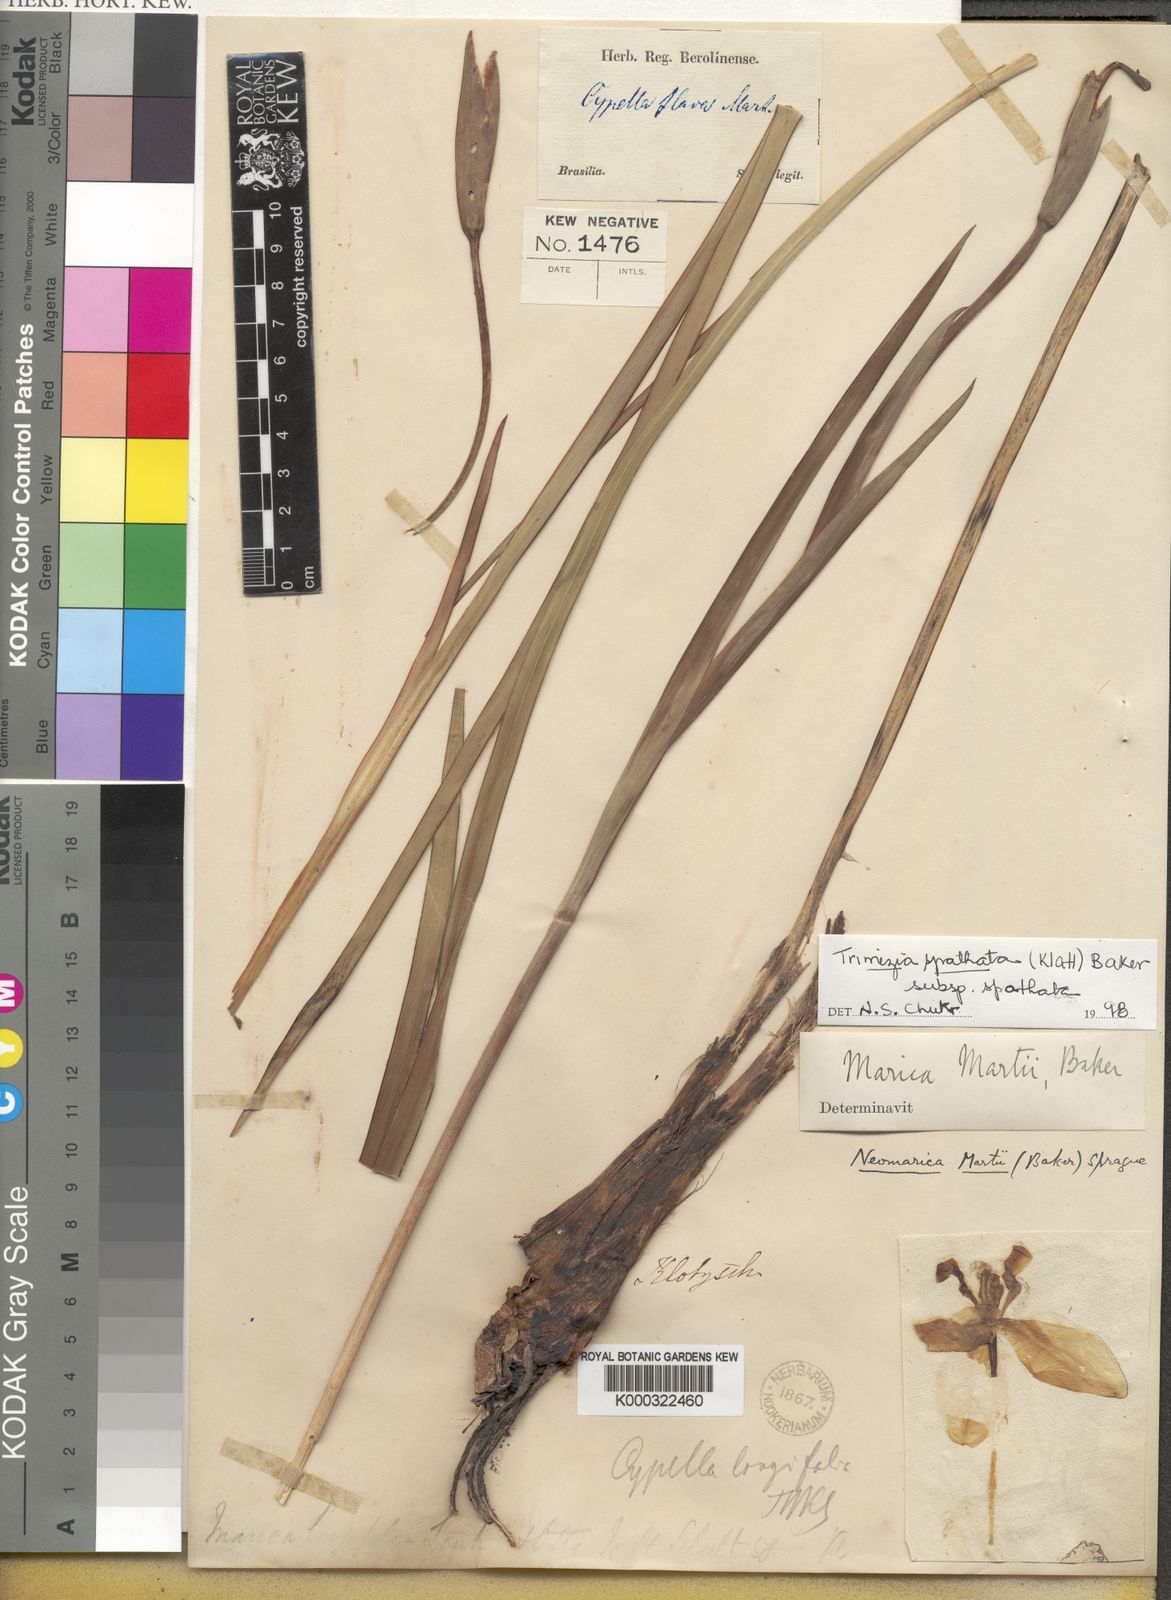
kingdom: Plantae
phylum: Tracheophyta
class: Liliopsida
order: Asparagales
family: Iridaceae
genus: Trimezia
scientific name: Trimezia spathata
